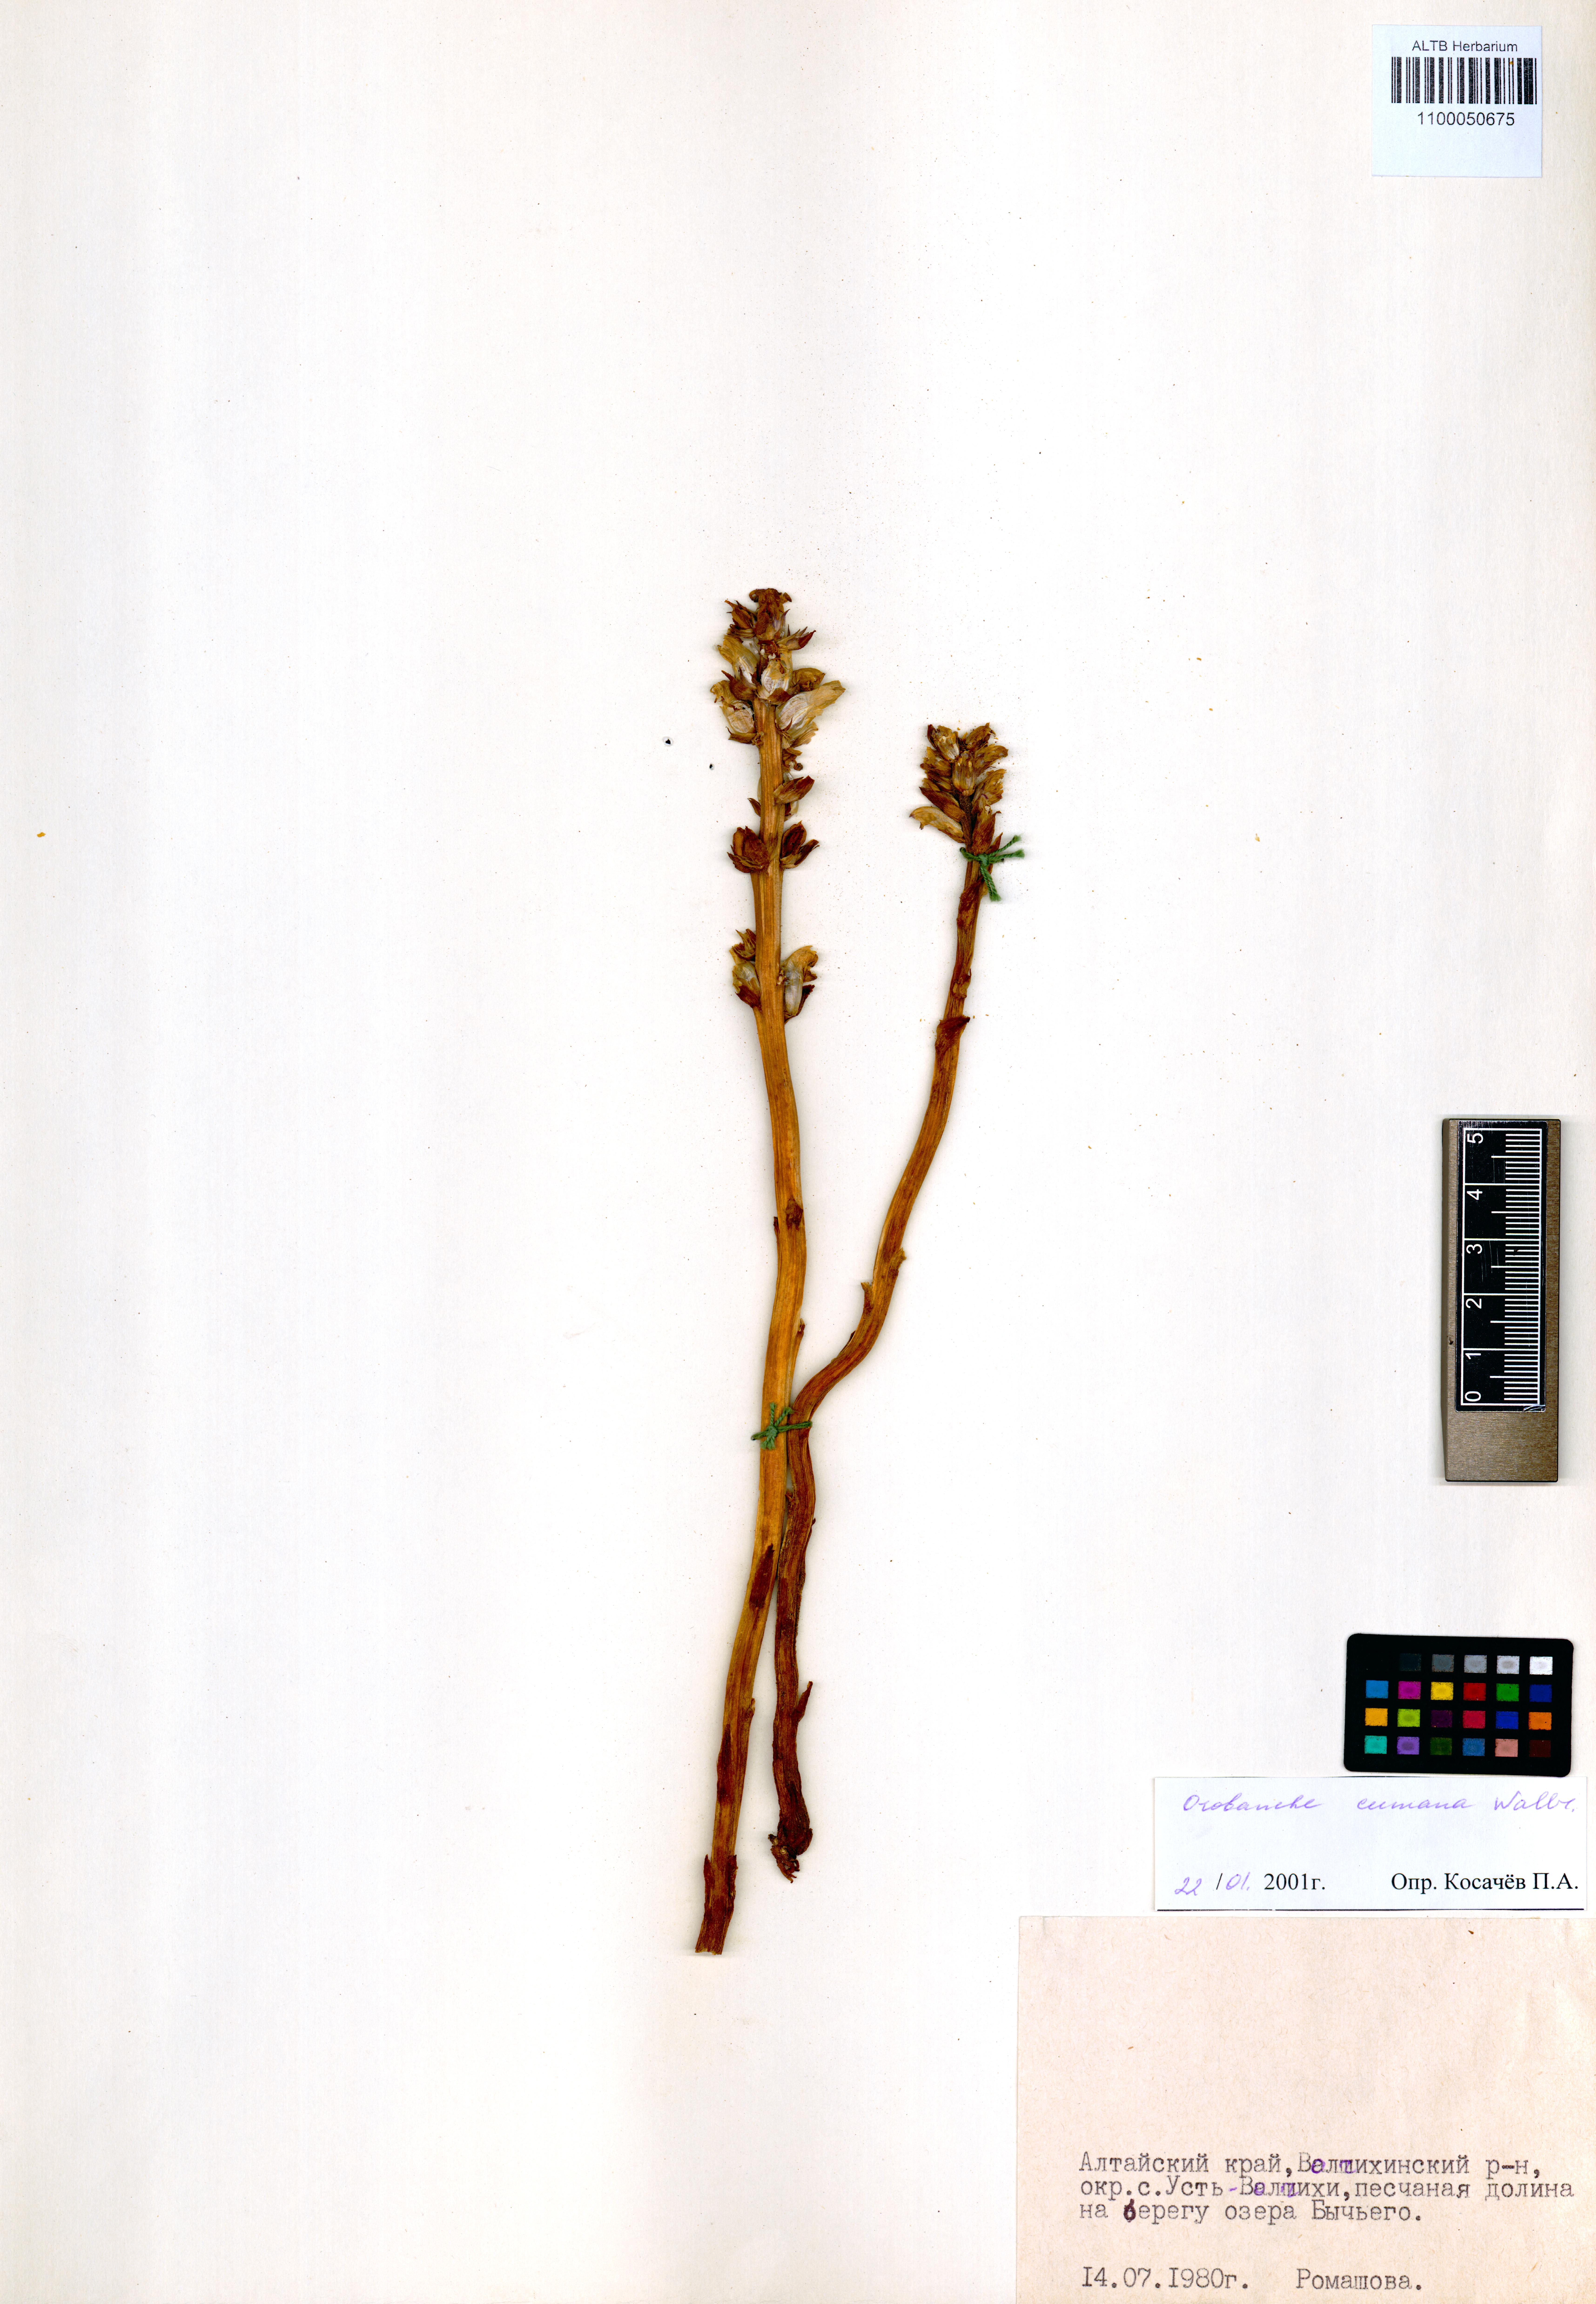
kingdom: Plantae
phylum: Tracheophyta
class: Magnoliopsida
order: Lamiales
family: Orobanchaceae
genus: Orobanche
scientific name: Orobanche cumana
